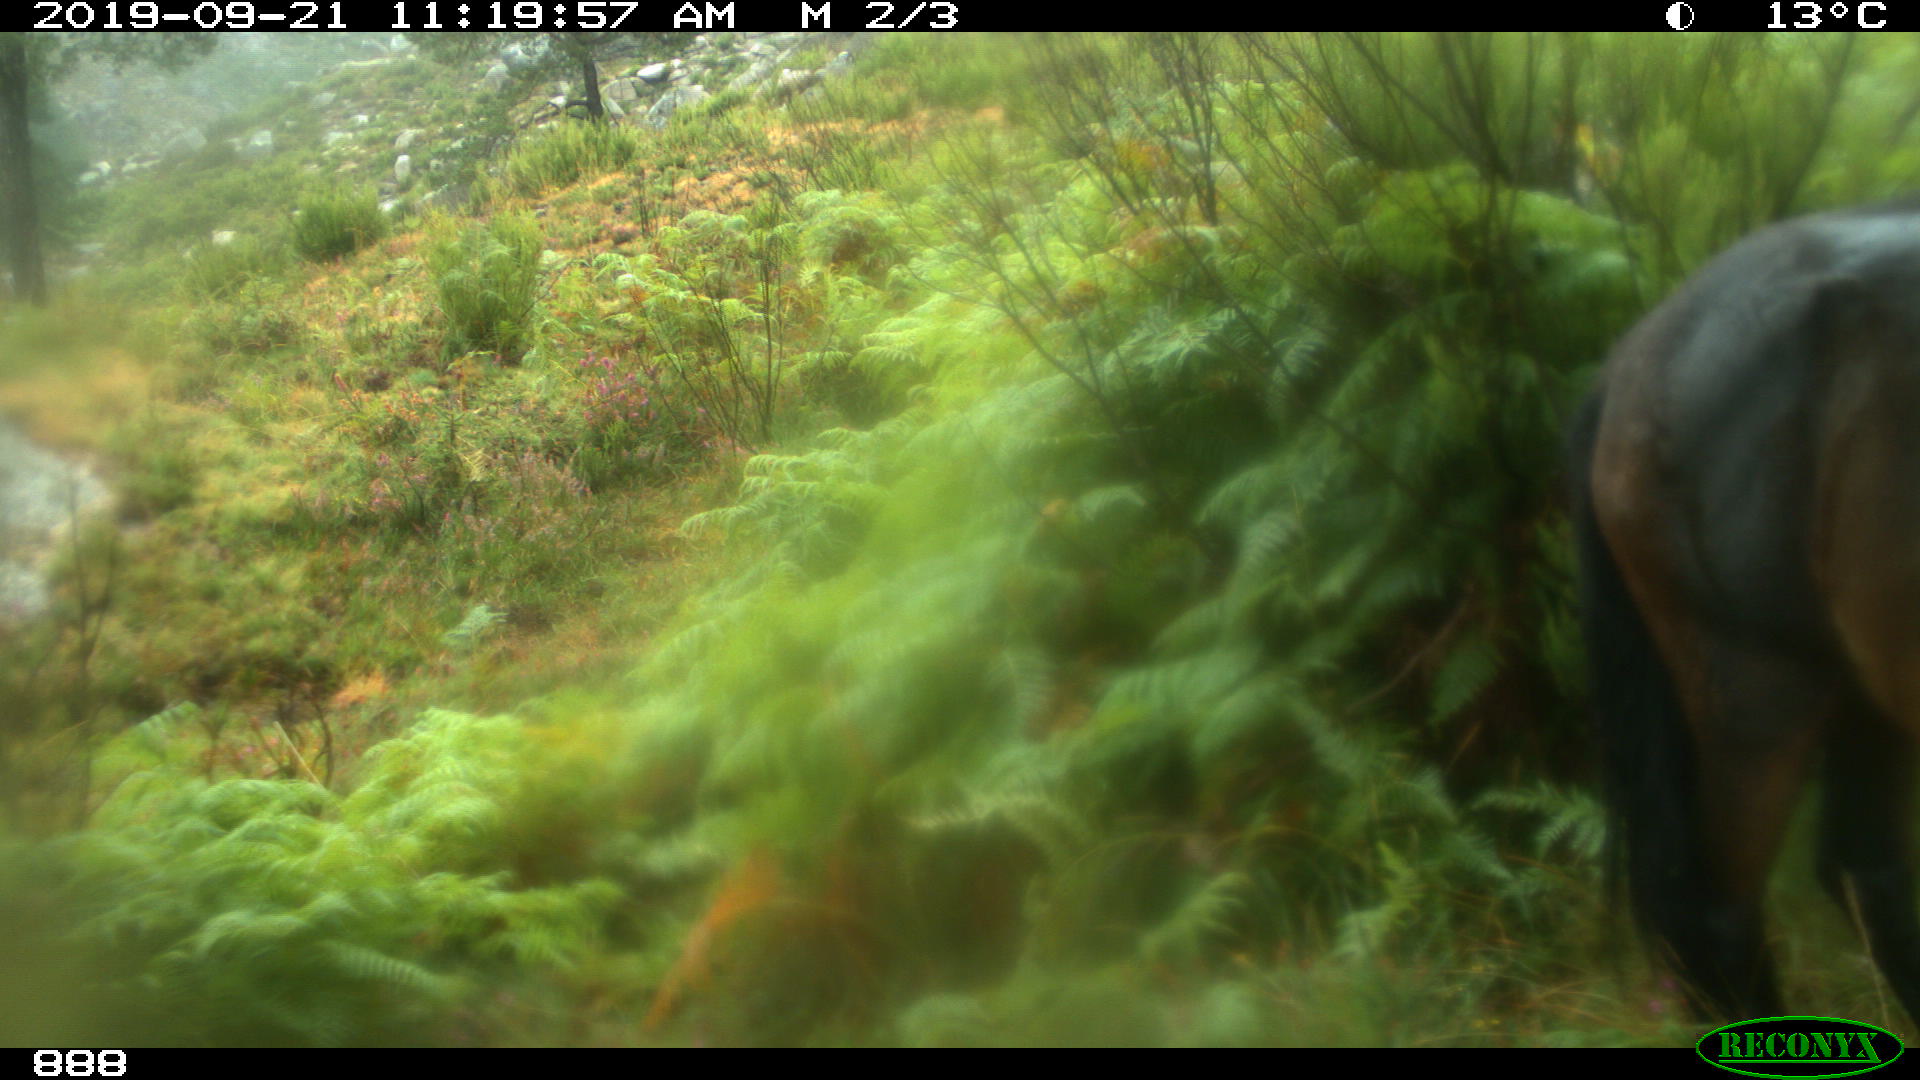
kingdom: Animalia
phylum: Chordata
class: Mammalia
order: Perissodactyla
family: Equidae
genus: Equus
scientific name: Equus caballus
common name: Horse
